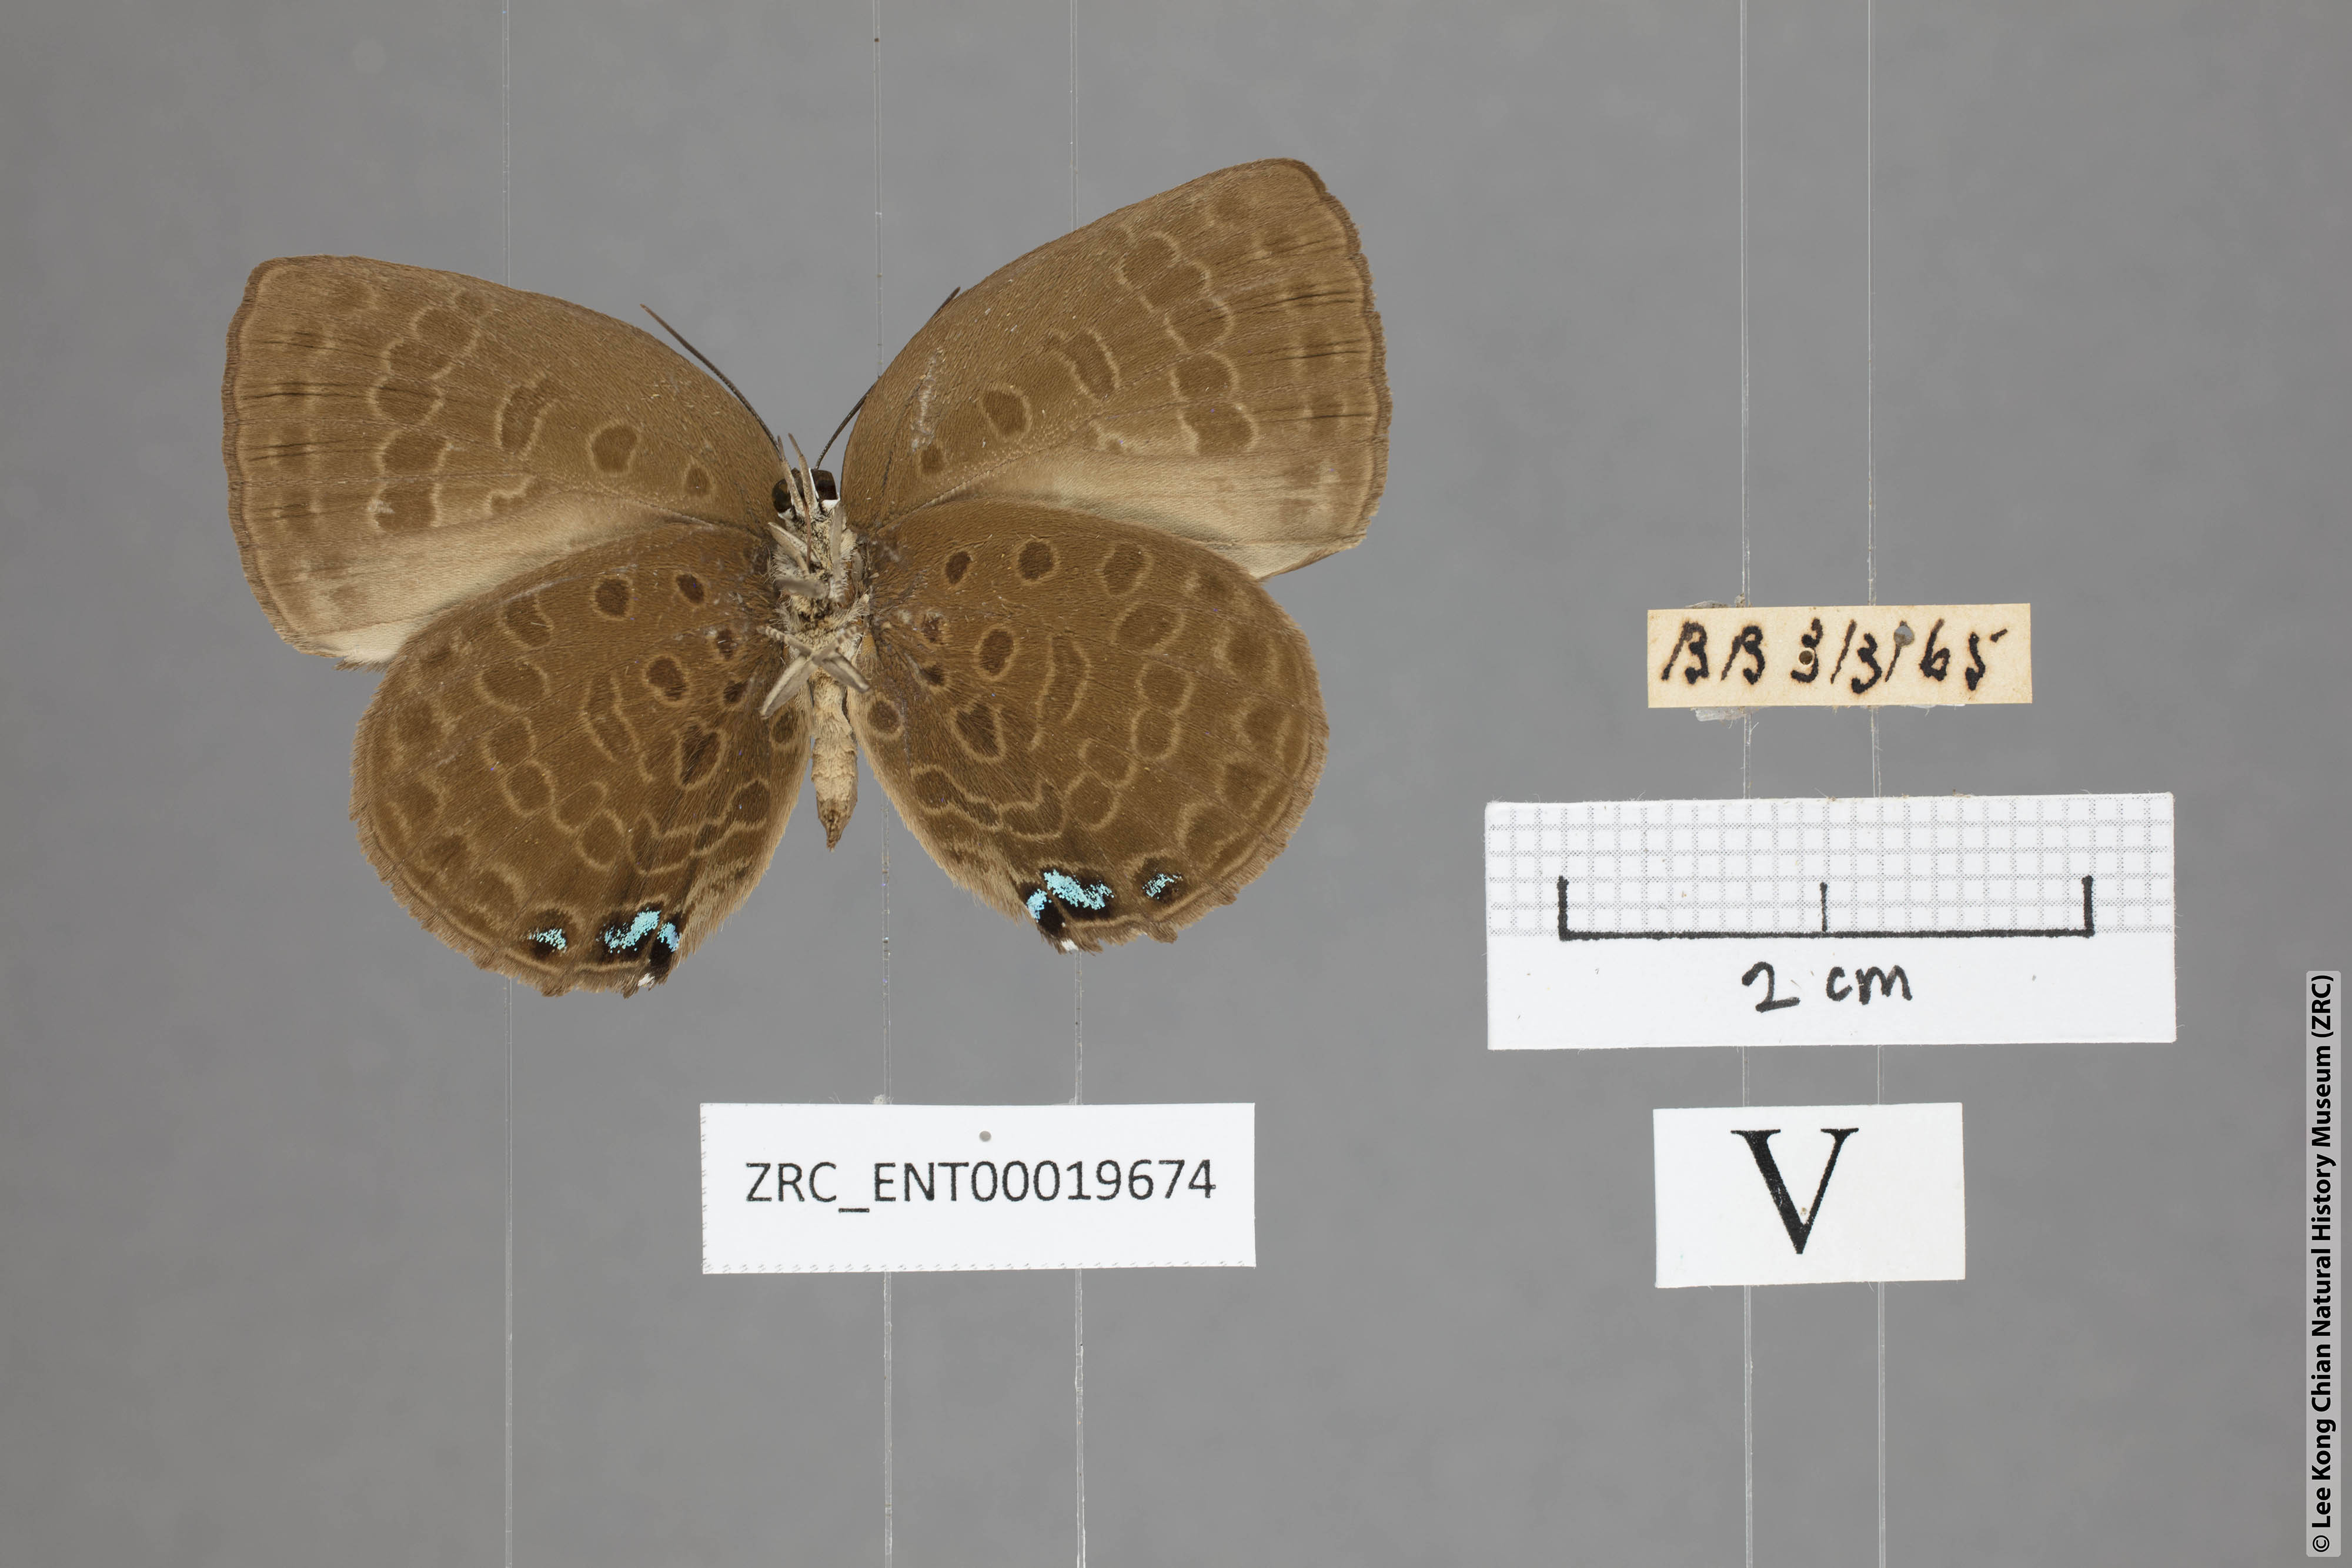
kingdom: Animalia
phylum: Arthropoda
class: Insecta
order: Lepidoptera
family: Lycaenidae
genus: Arhopala
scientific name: Arhopala moolaina
